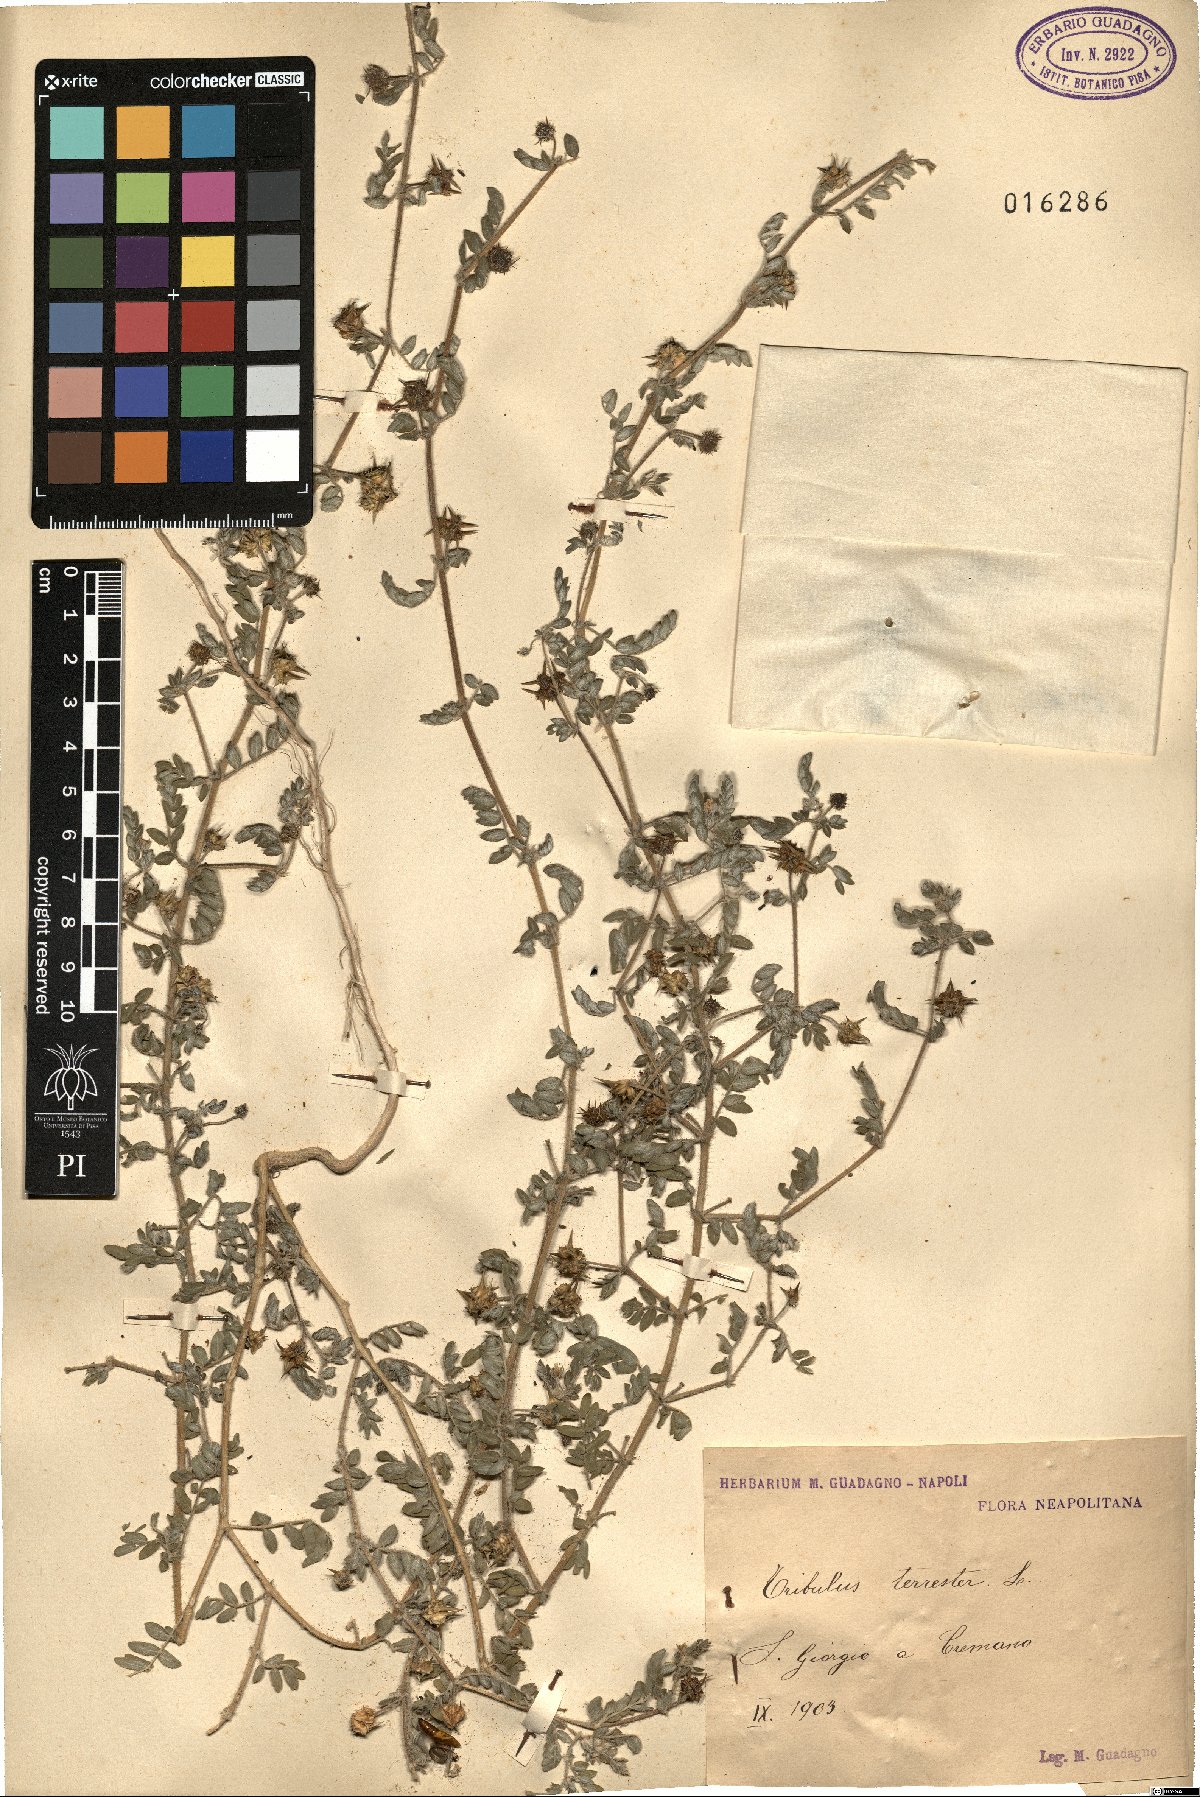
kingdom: Plantae
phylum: Tracheophyta
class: Magnoliopsida
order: Zygophyllales
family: Zygophyllaceae
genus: Tribulus
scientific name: Tribulus terrestris
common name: Puncturevine
